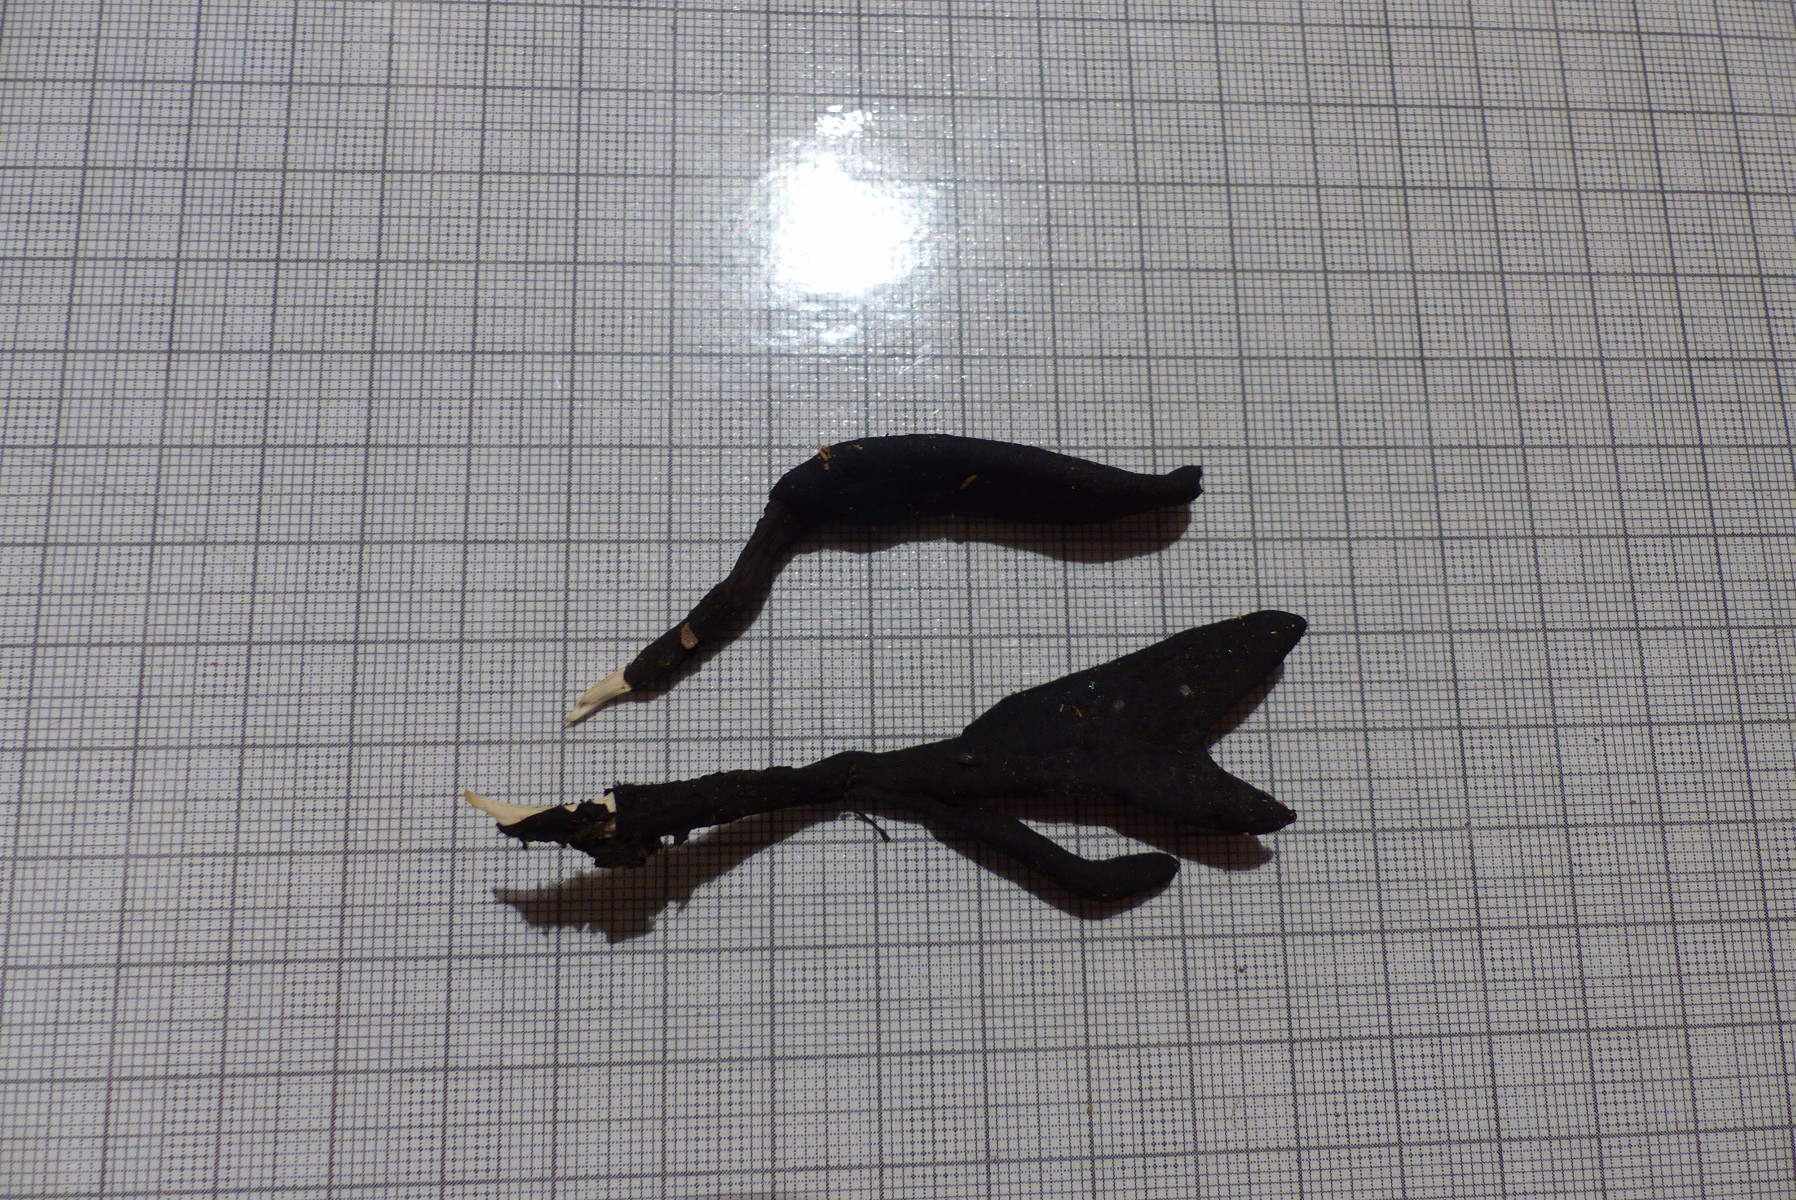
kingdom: Fungi
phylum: Ascomycota
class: Sordariomycetes
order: Xylariales
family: Xylariaceae
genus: Xylaria
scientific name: Xylaria hypoxylon
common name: grenet stødsvamp
